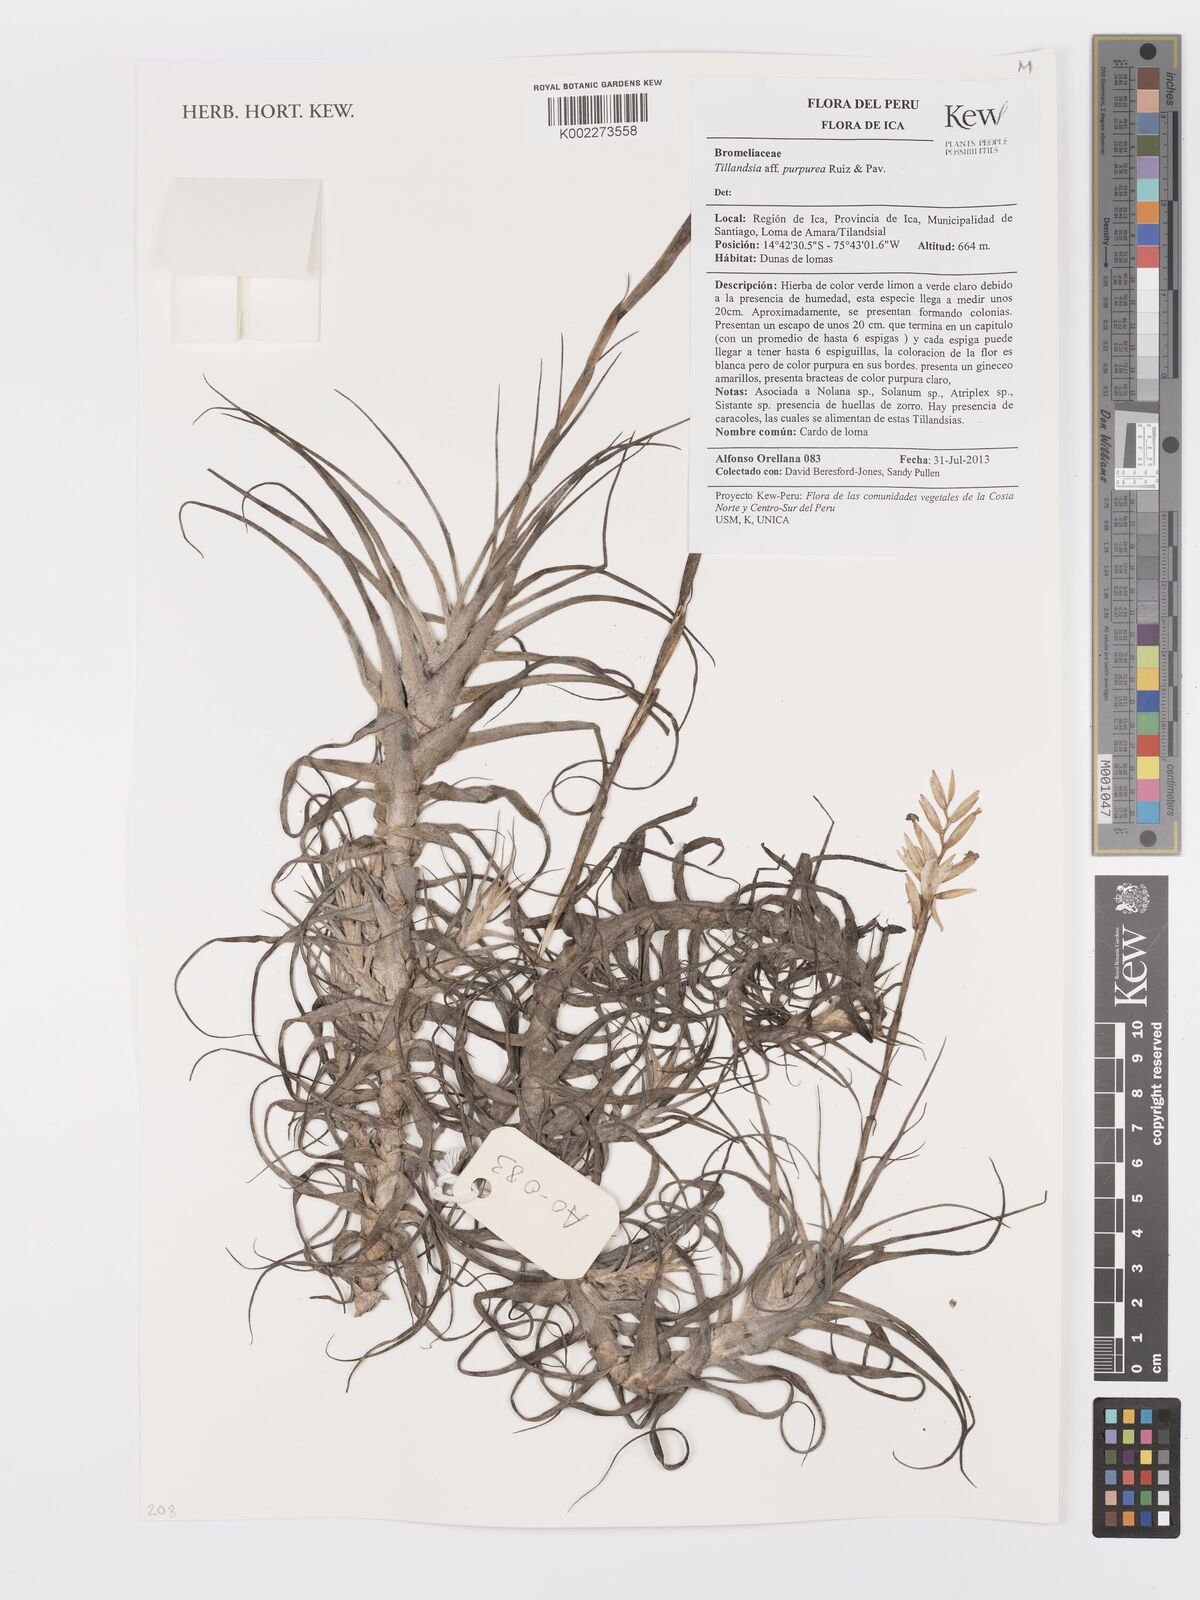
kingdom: Plantae
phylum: Tracheophyta
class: Liliopsida
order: Poales
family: Bromeliaceae
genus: Tillandsia
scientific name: Tillandsia purpurea
